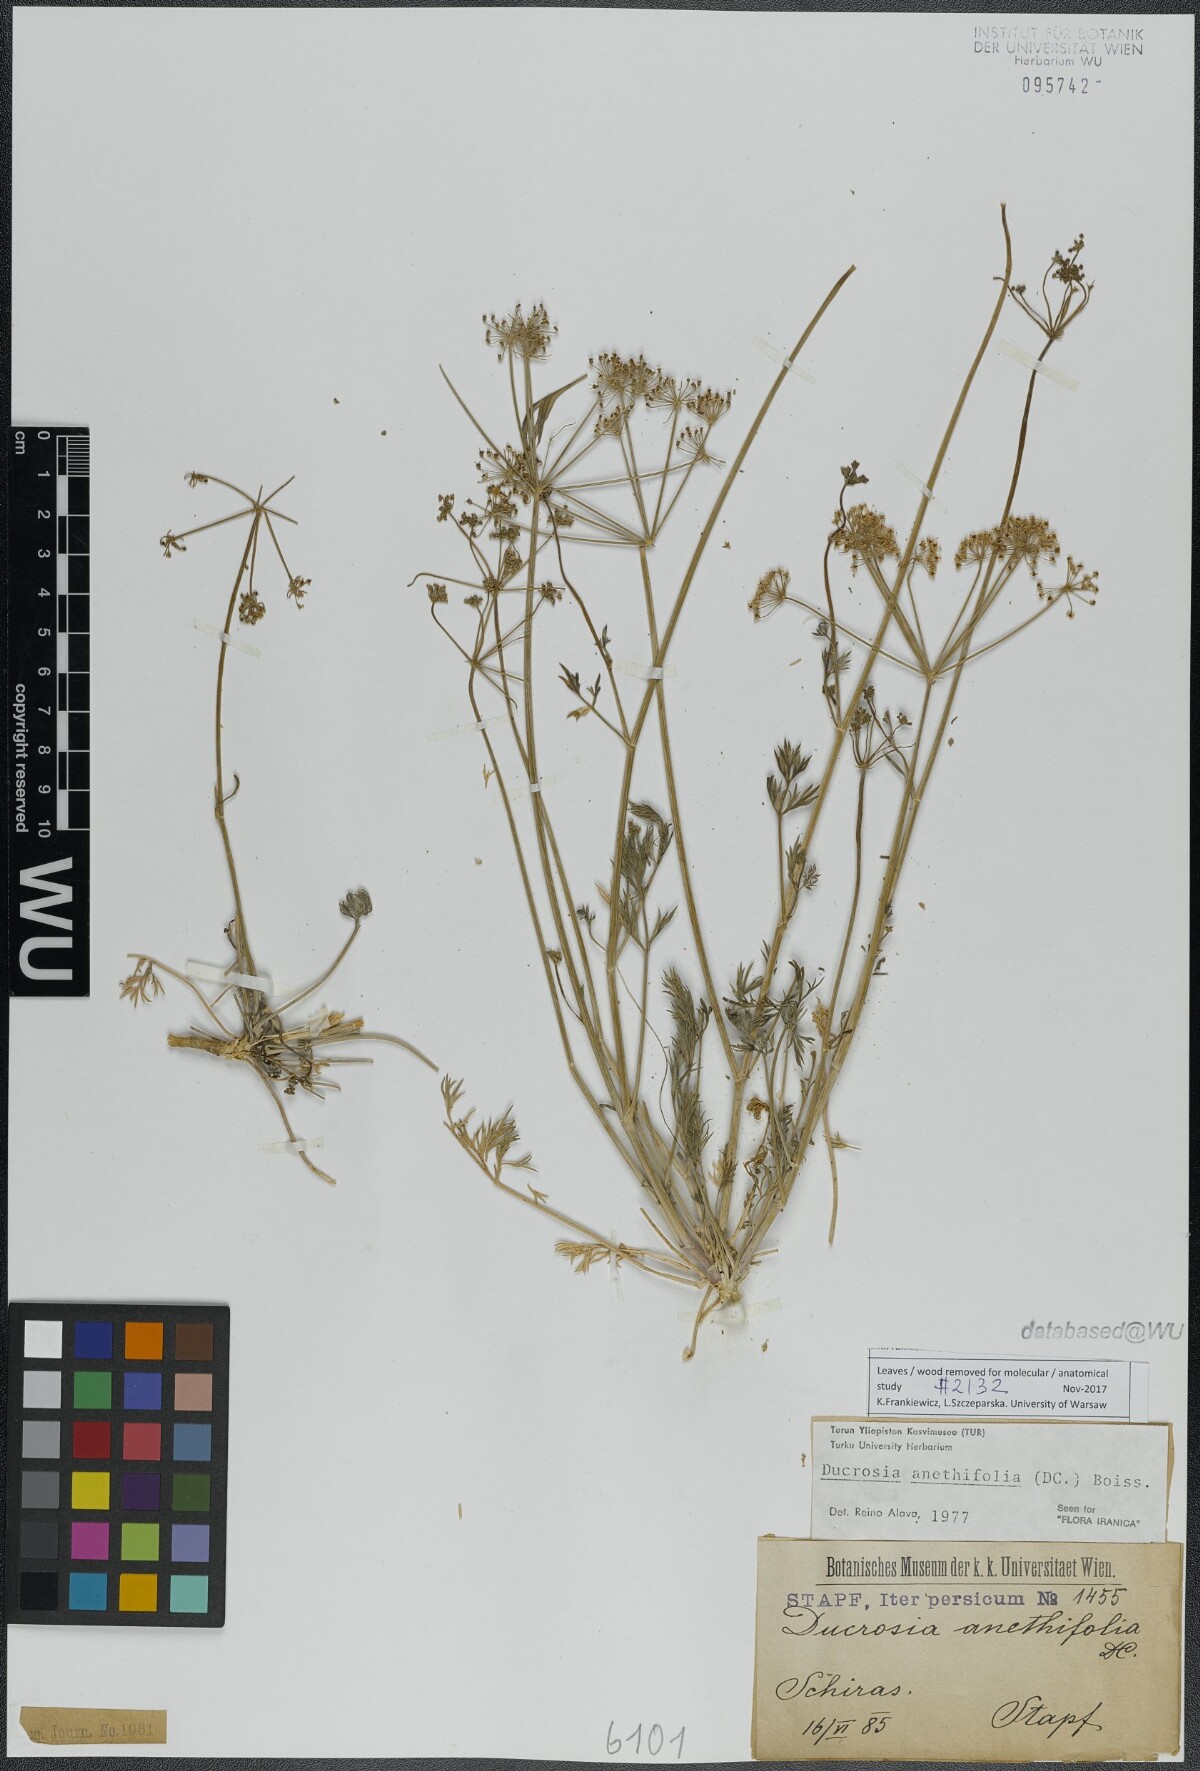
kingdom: Plantae
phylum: Tracheophyta
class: Magnoliopsida
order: Apiales
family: Apiaceae
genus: Ducrosia
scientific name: Ducrosia anethifolia
